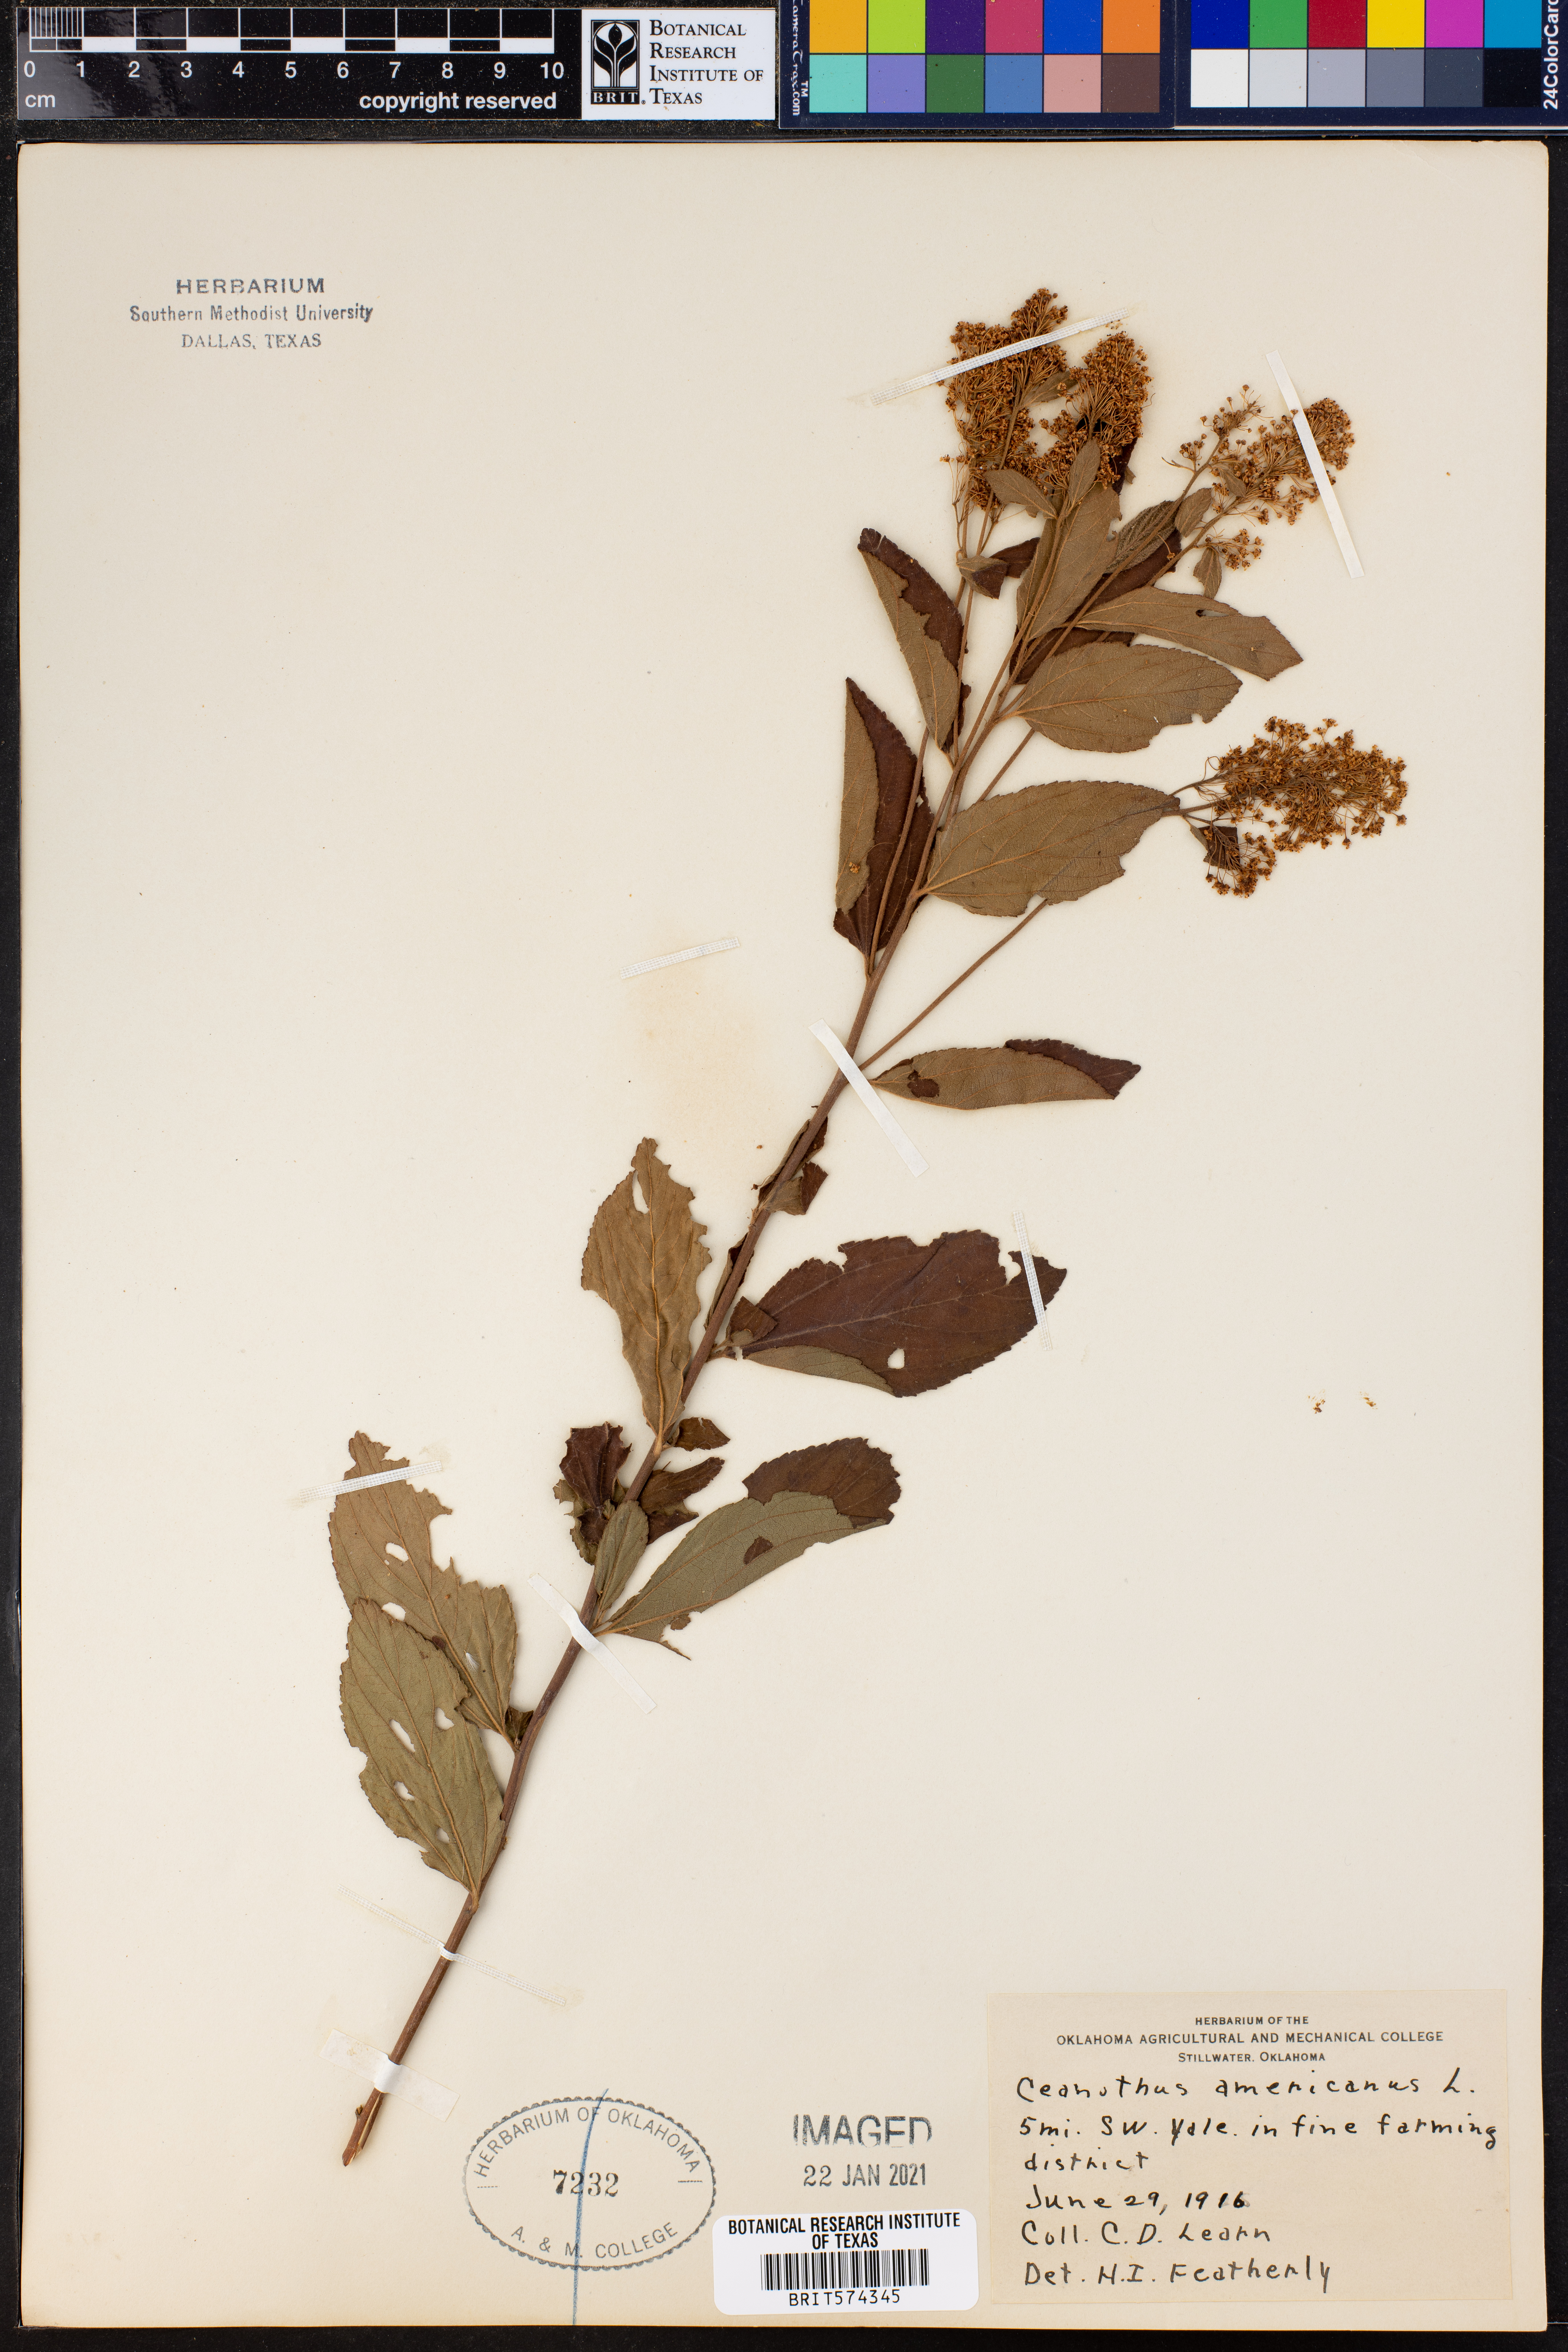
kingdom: Plantae
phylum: Tracheophyta
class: Magnoliopsida
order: Rosales
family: Rhamnaceae
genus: Ceanothus
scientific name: Ceanothus americanus
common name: Redroot
